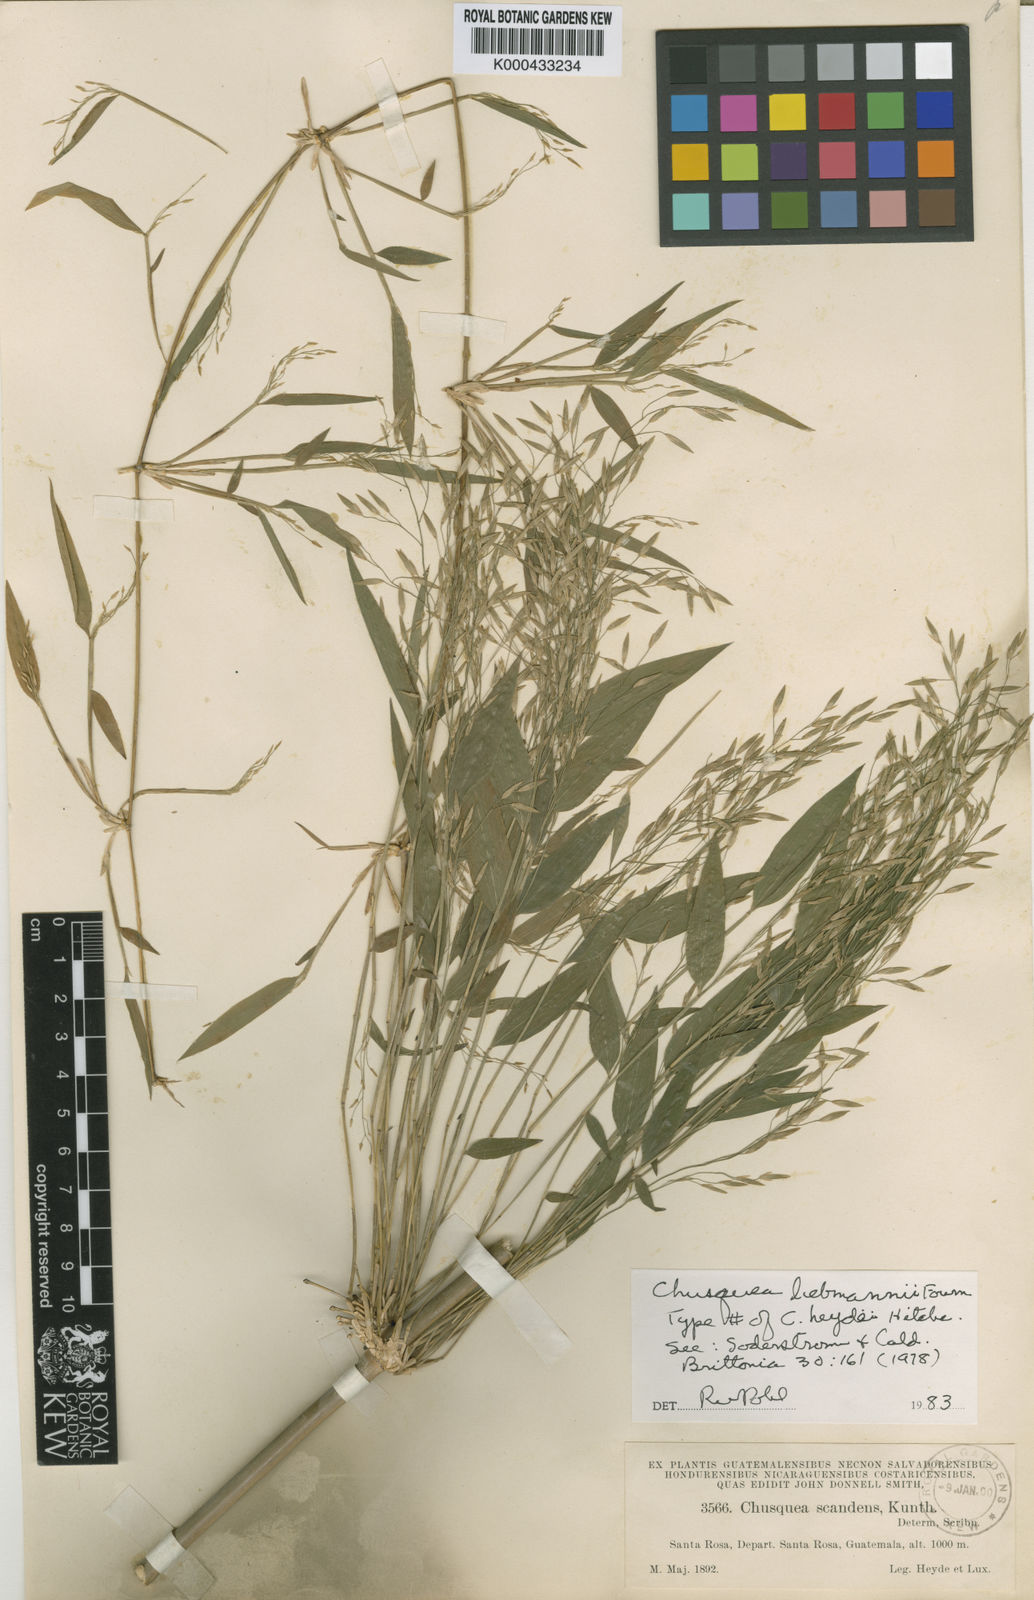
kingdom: Plantae
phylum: Tracheophyta
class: Liliopsida
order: Poales
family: Poaceae
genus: Chusquea
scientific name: Chusquea liebmannii
